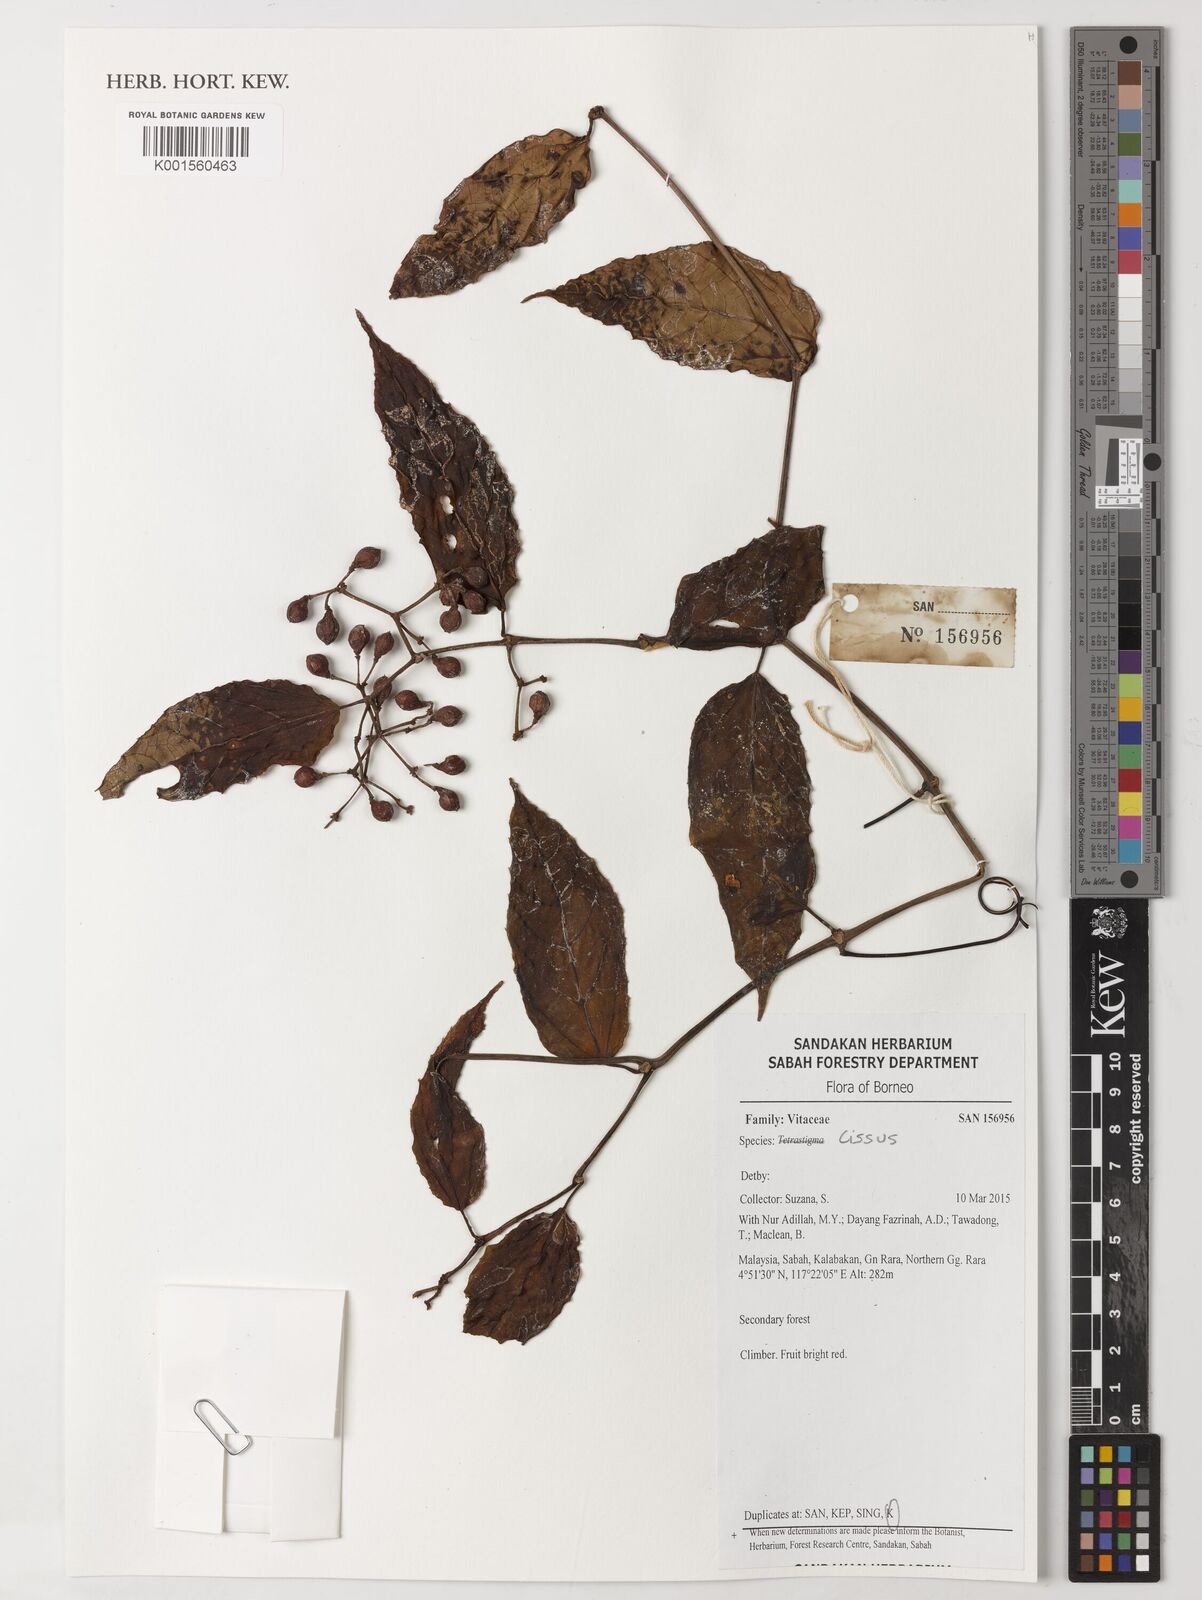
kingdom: Plantae
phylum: Tracheophyta
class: Magnoliopsida
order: Vitales
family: Vitaceae
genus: Cissus
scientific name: Cissus
